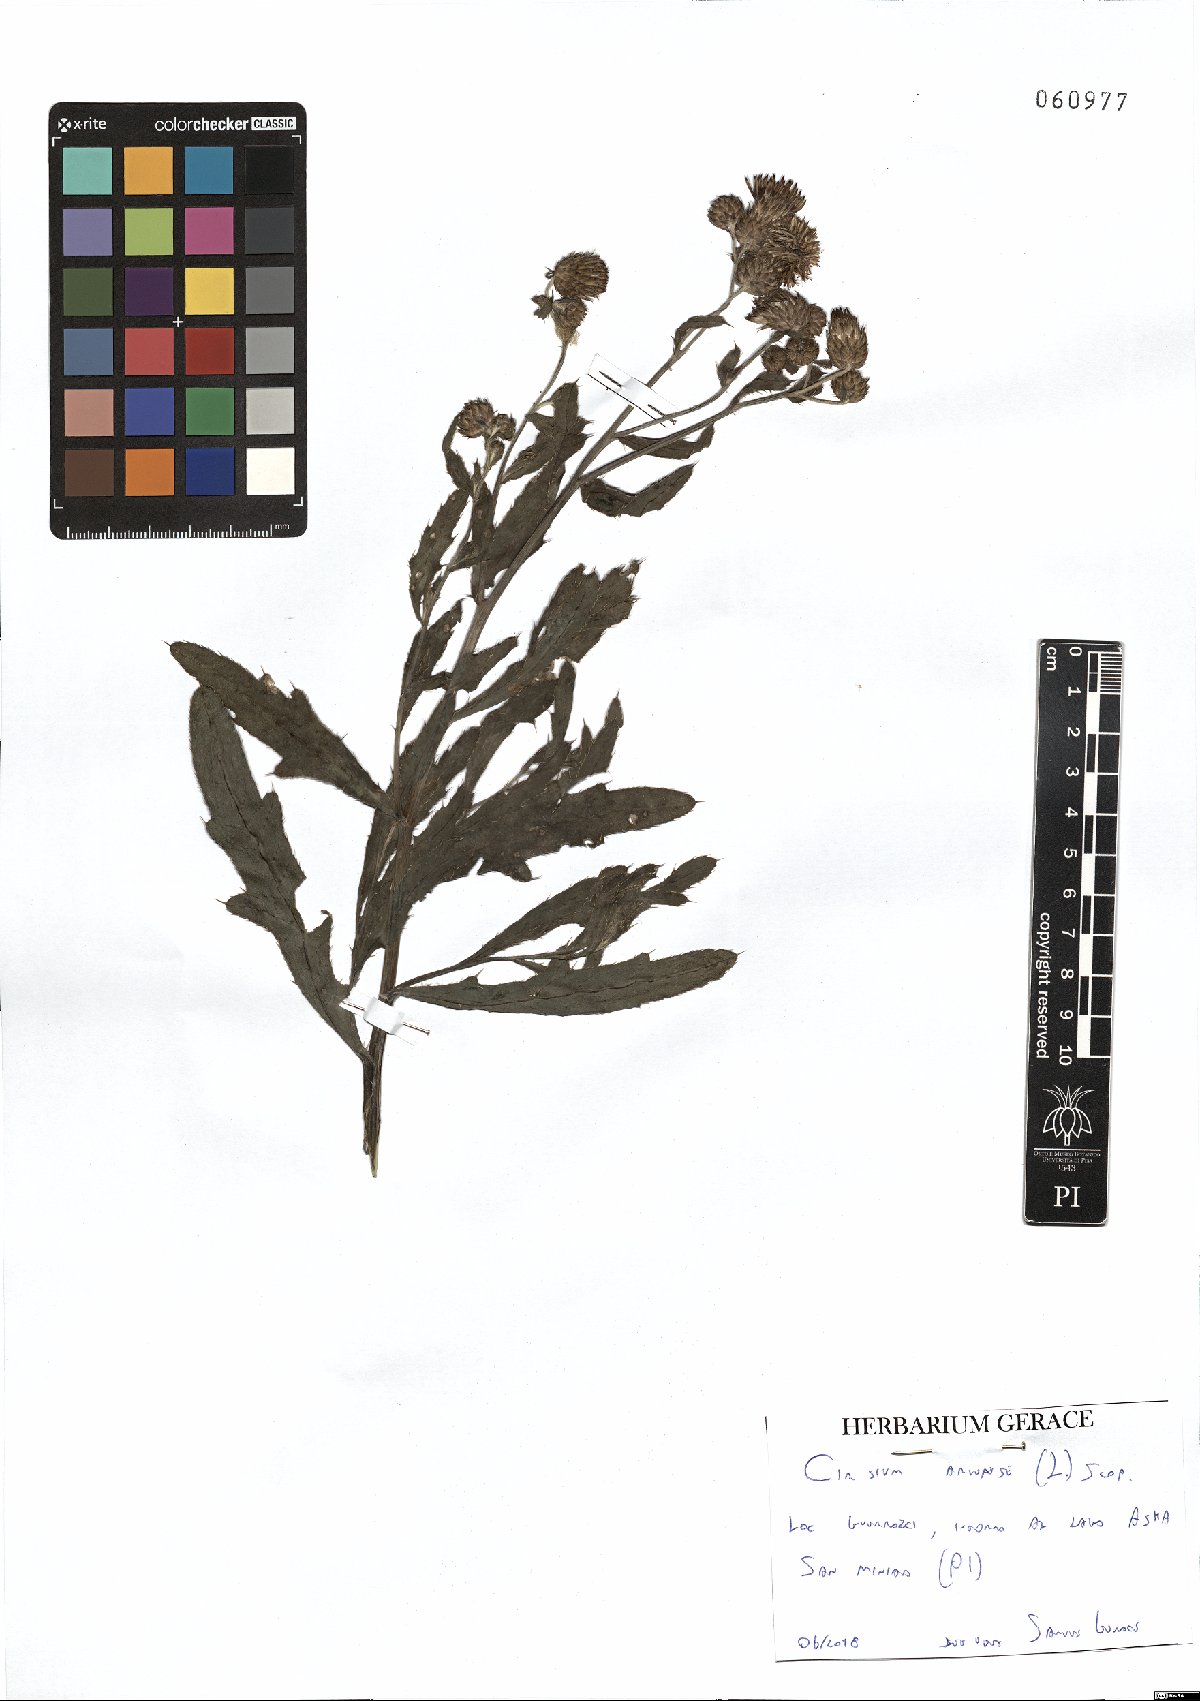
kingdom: Plantae
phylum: Tracheophyta
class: Magnoliopsida
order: Asterales
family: Asteraceae
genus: Cirsium
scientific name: Cirsium arvense
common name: Creeping thistle
